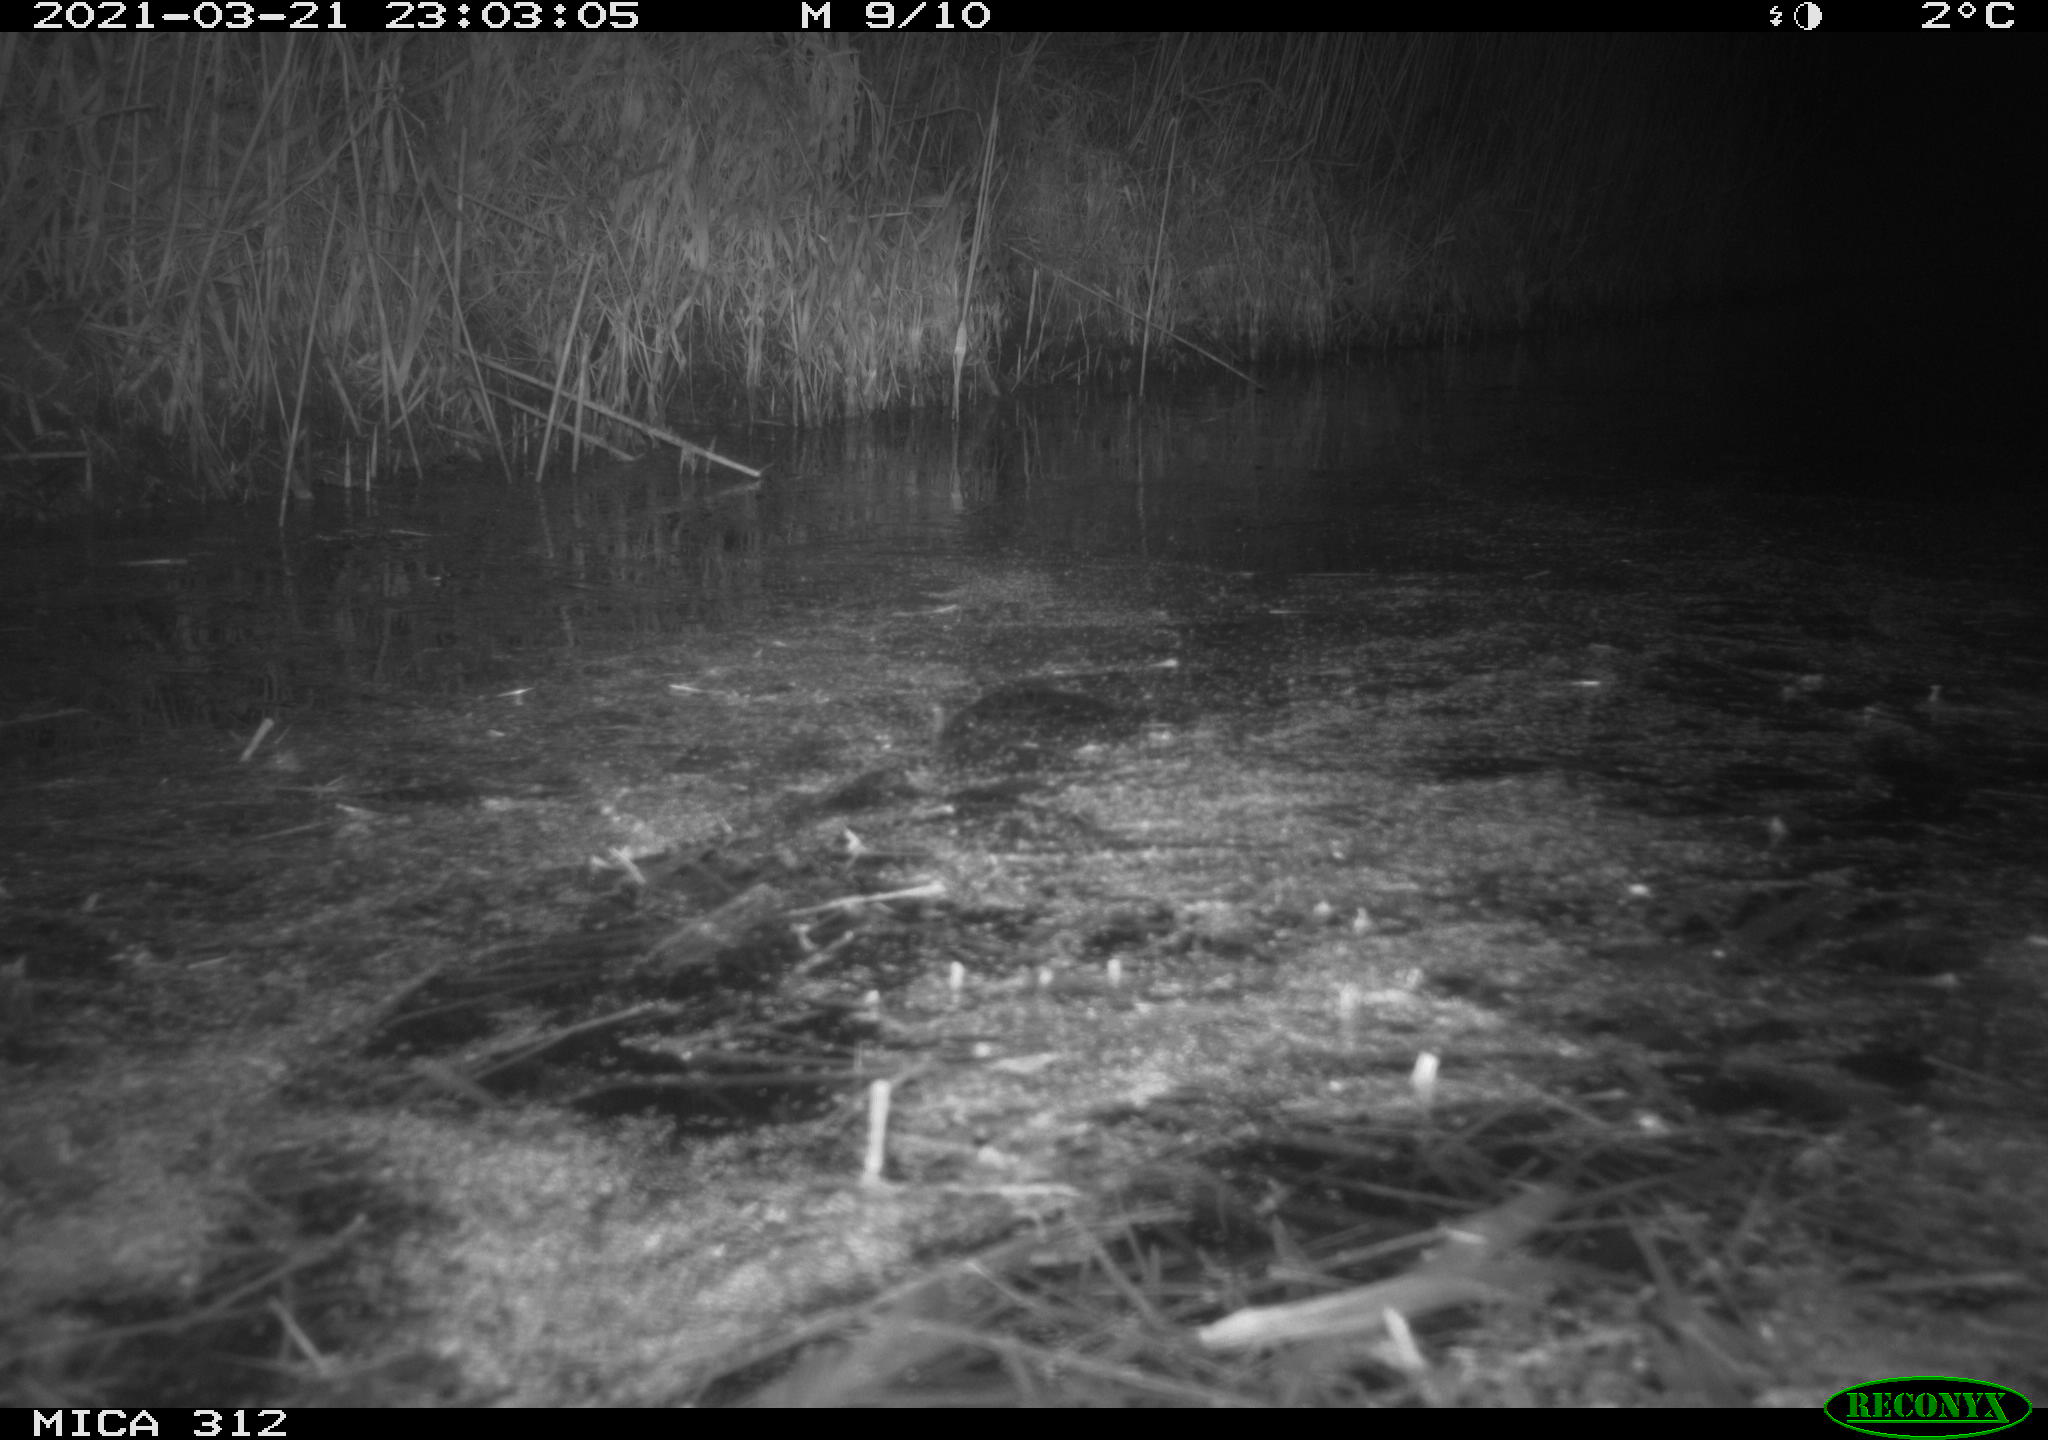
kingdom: Animalia
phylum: Chordata
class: Aves
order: Anseriformes
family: Anatidae
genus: Anas
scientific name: Anas platyrhynchos
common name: Mallard
